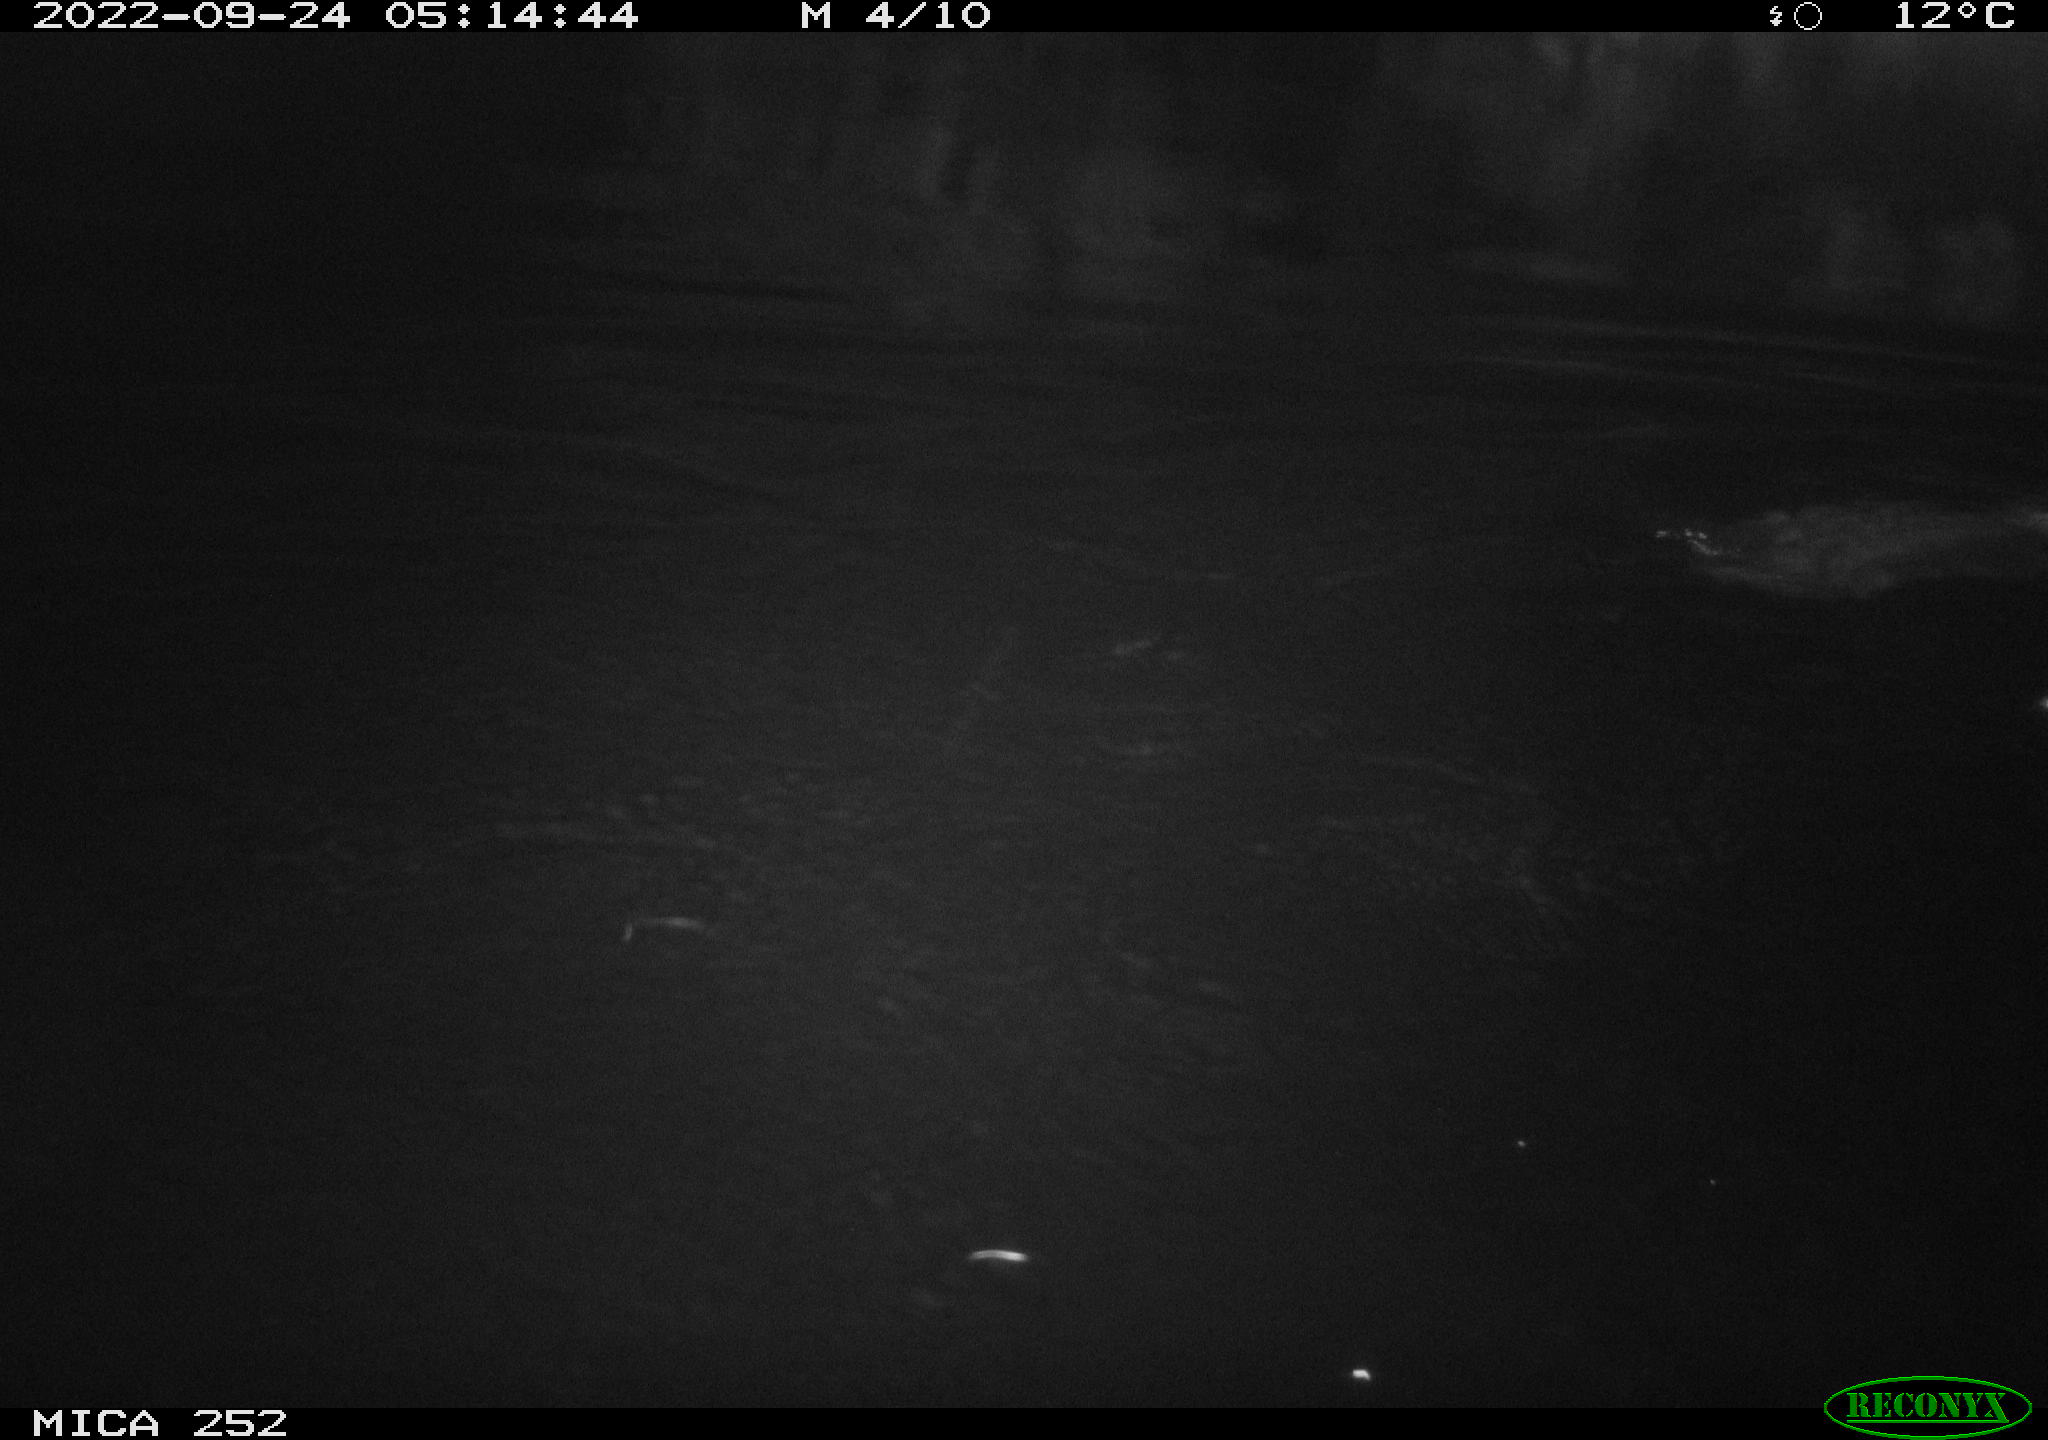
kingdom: Animalia
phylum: Chordata
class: Mammalia
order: Rodentia
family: Castoridae
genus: Castor
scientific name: Castor fiber
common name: Eurasian beaver
